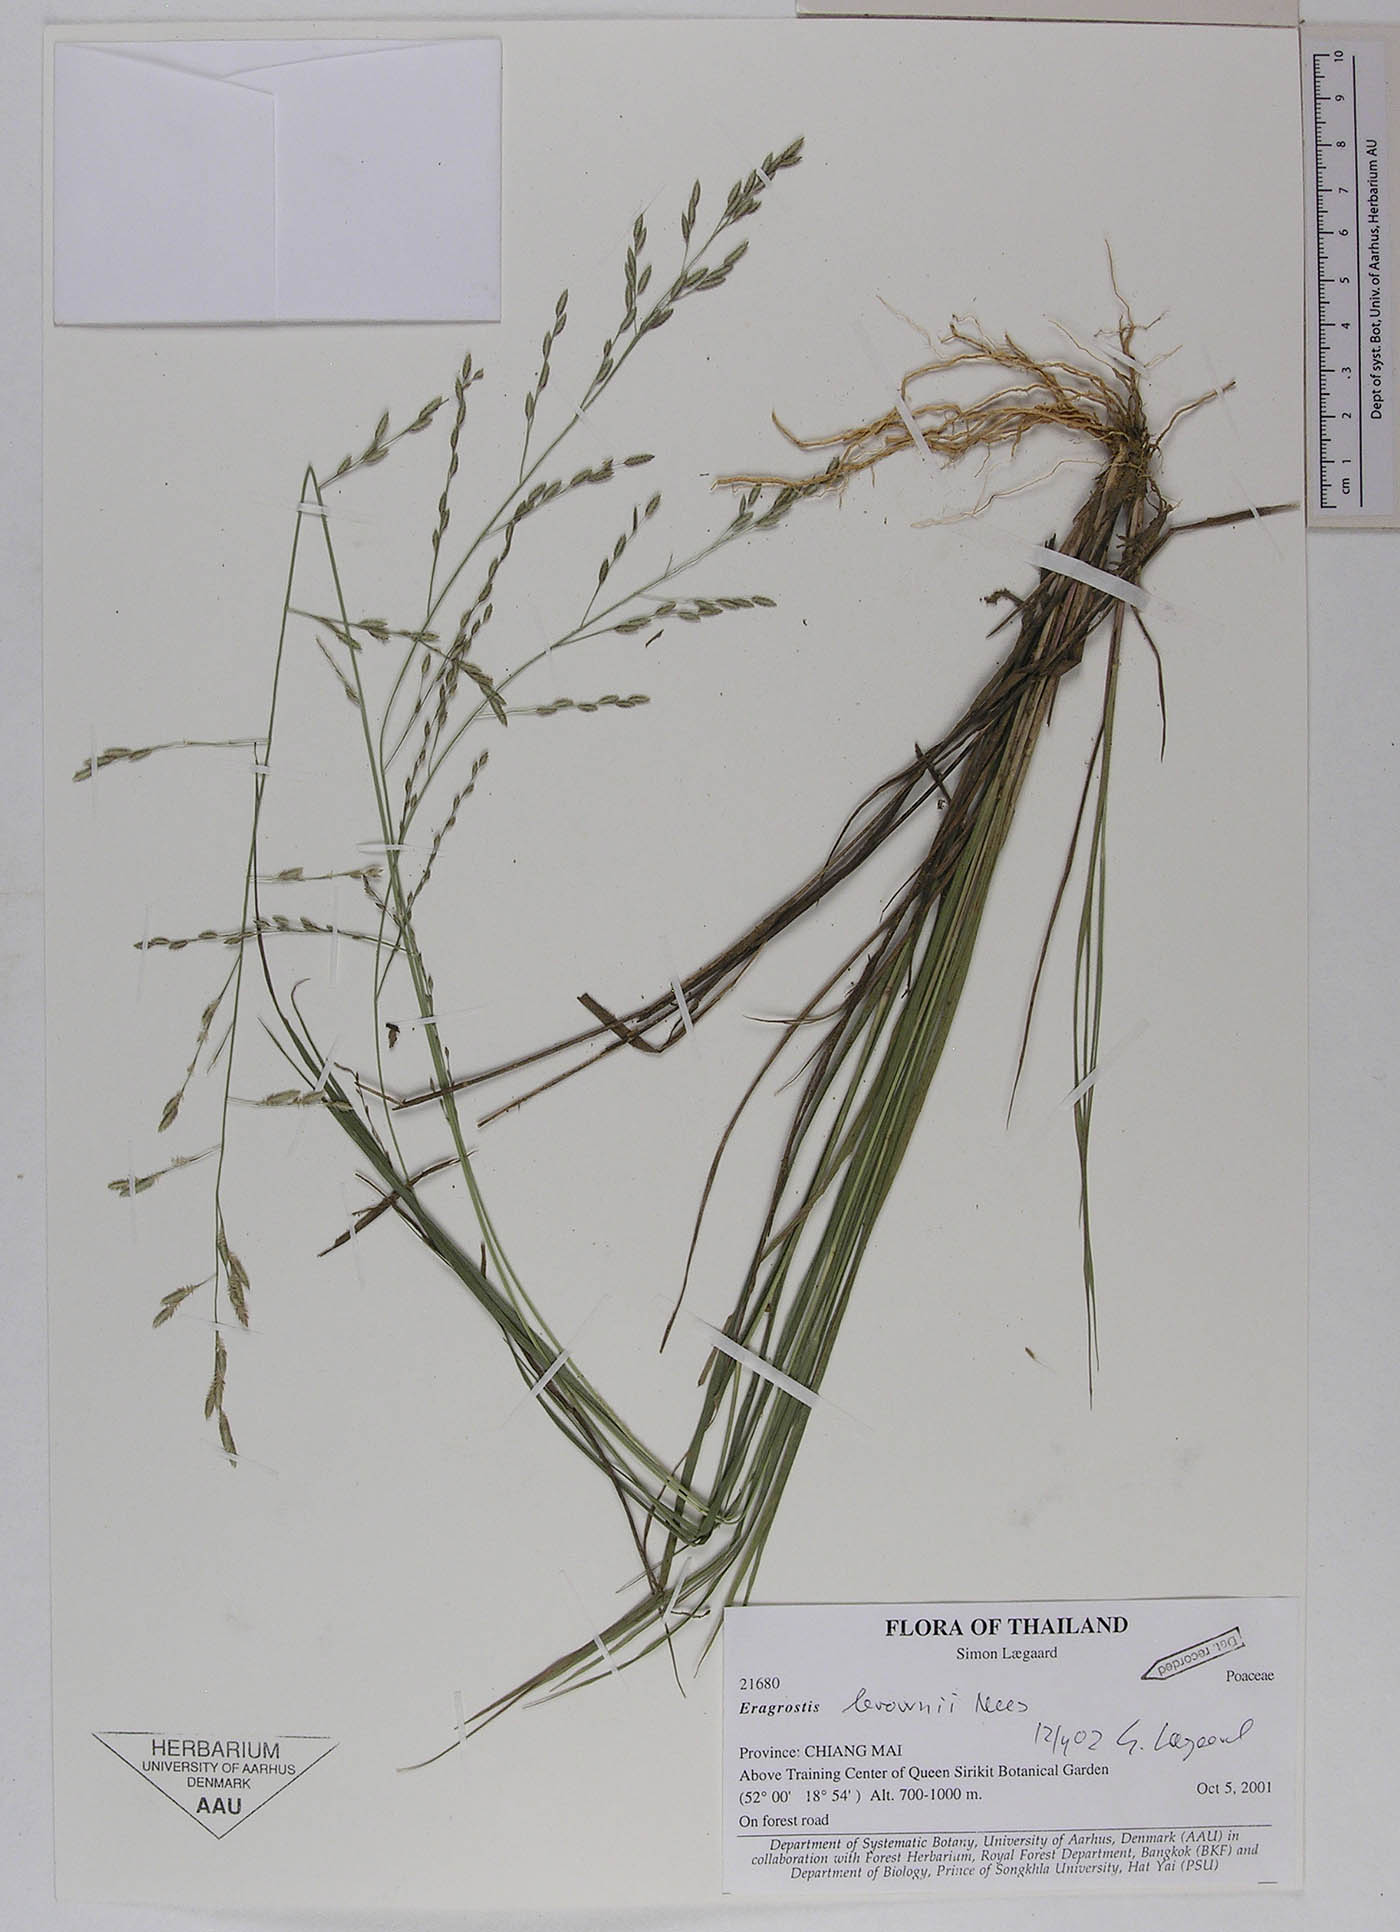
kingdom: Plantae
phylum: Tracheophyta
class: Liliopsida
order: Poales
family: Poaceae
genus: Eragrostis
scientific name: Eragrostis cumingii
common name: Cuming's lovegrass
